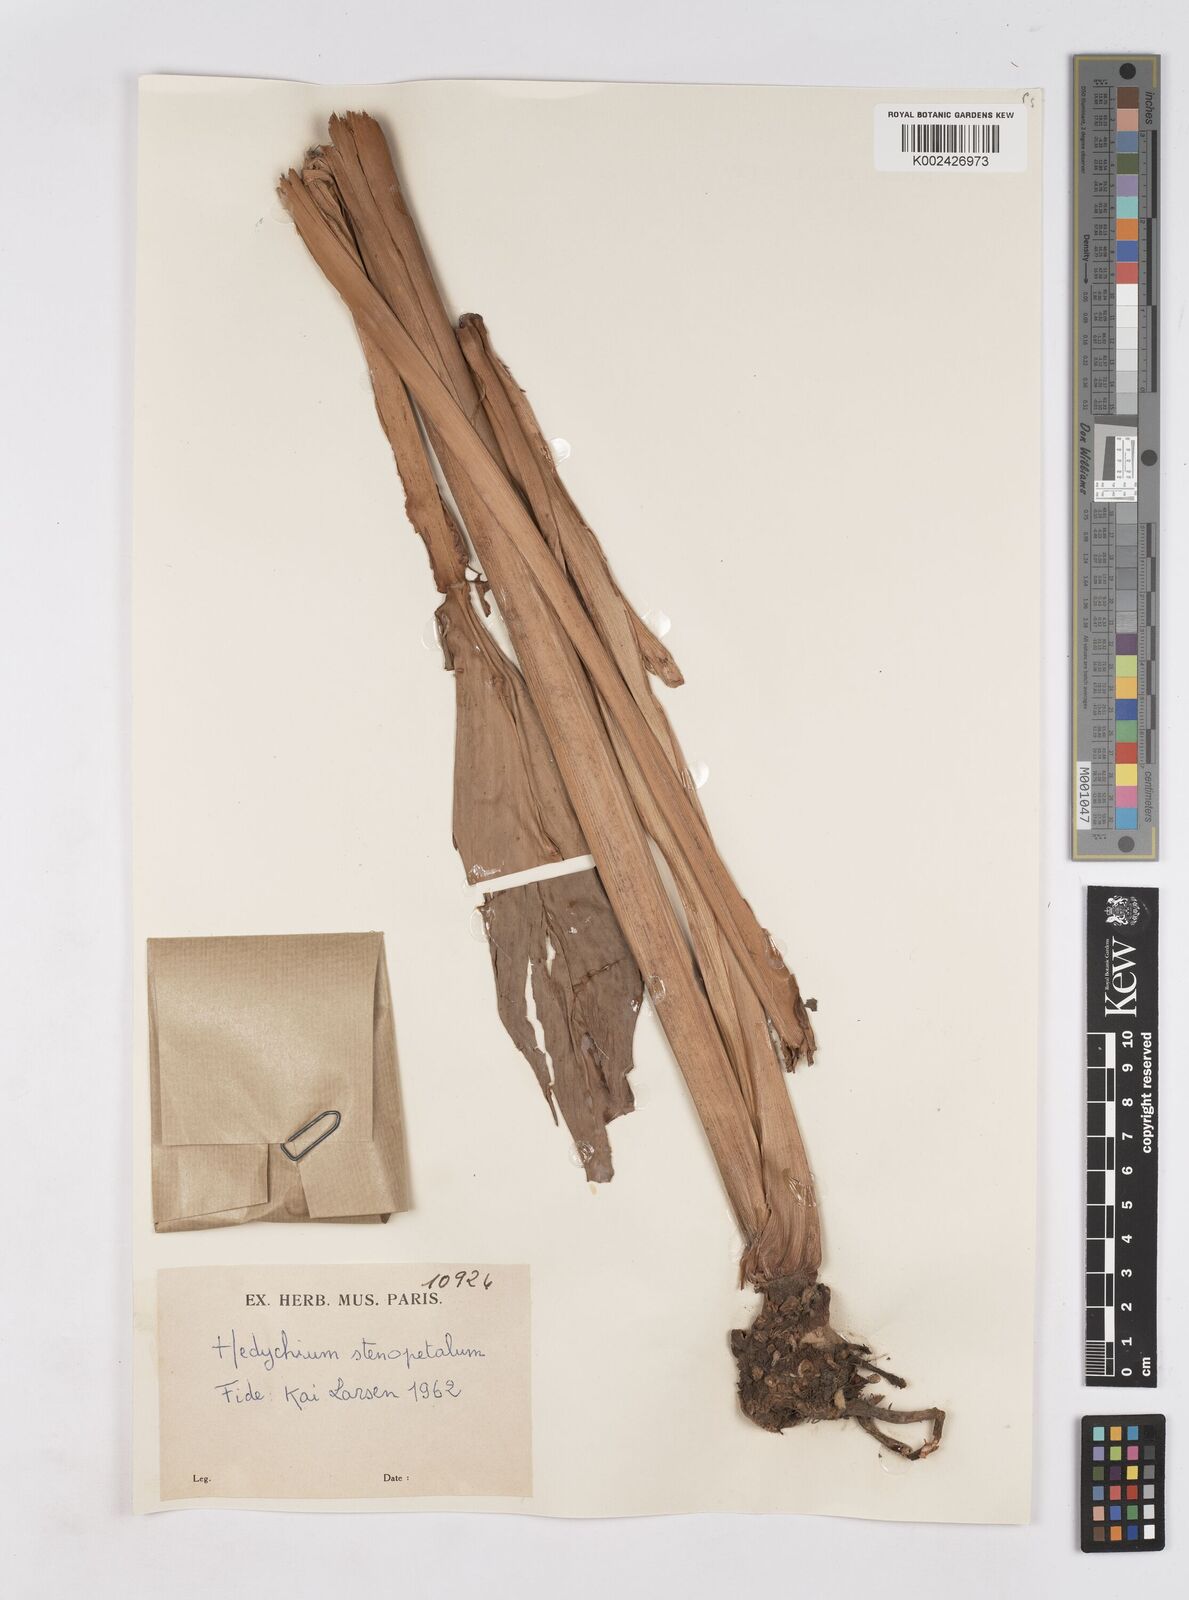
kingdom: Plantae
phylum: Tracheophyta
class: Liliopsida
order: Zingiberales
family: Zingiberaceae
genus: Hedychium
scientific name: Hedychium stenopetalum
